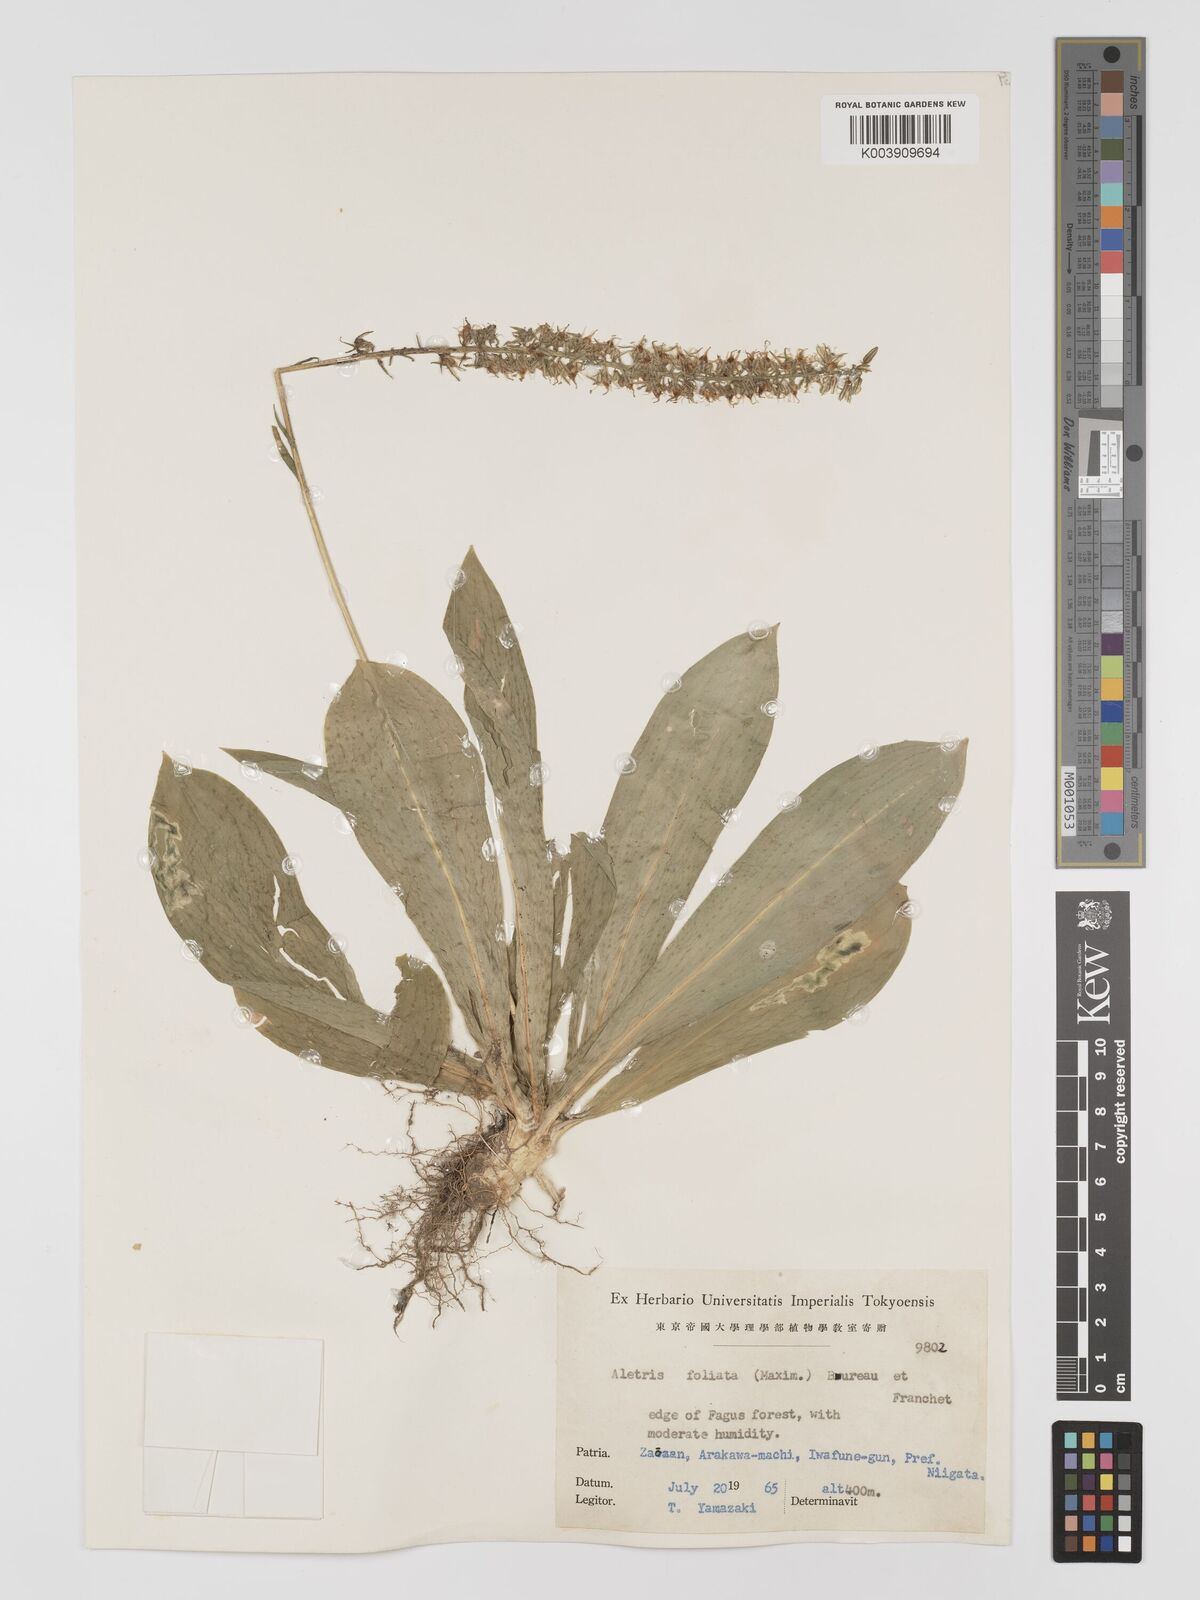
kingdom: Plantae
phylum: Tracheophyta
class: Liliopsida
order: Dioscoreales
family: Nartheciaceae
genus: Aletris
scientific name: Aletris foliata
